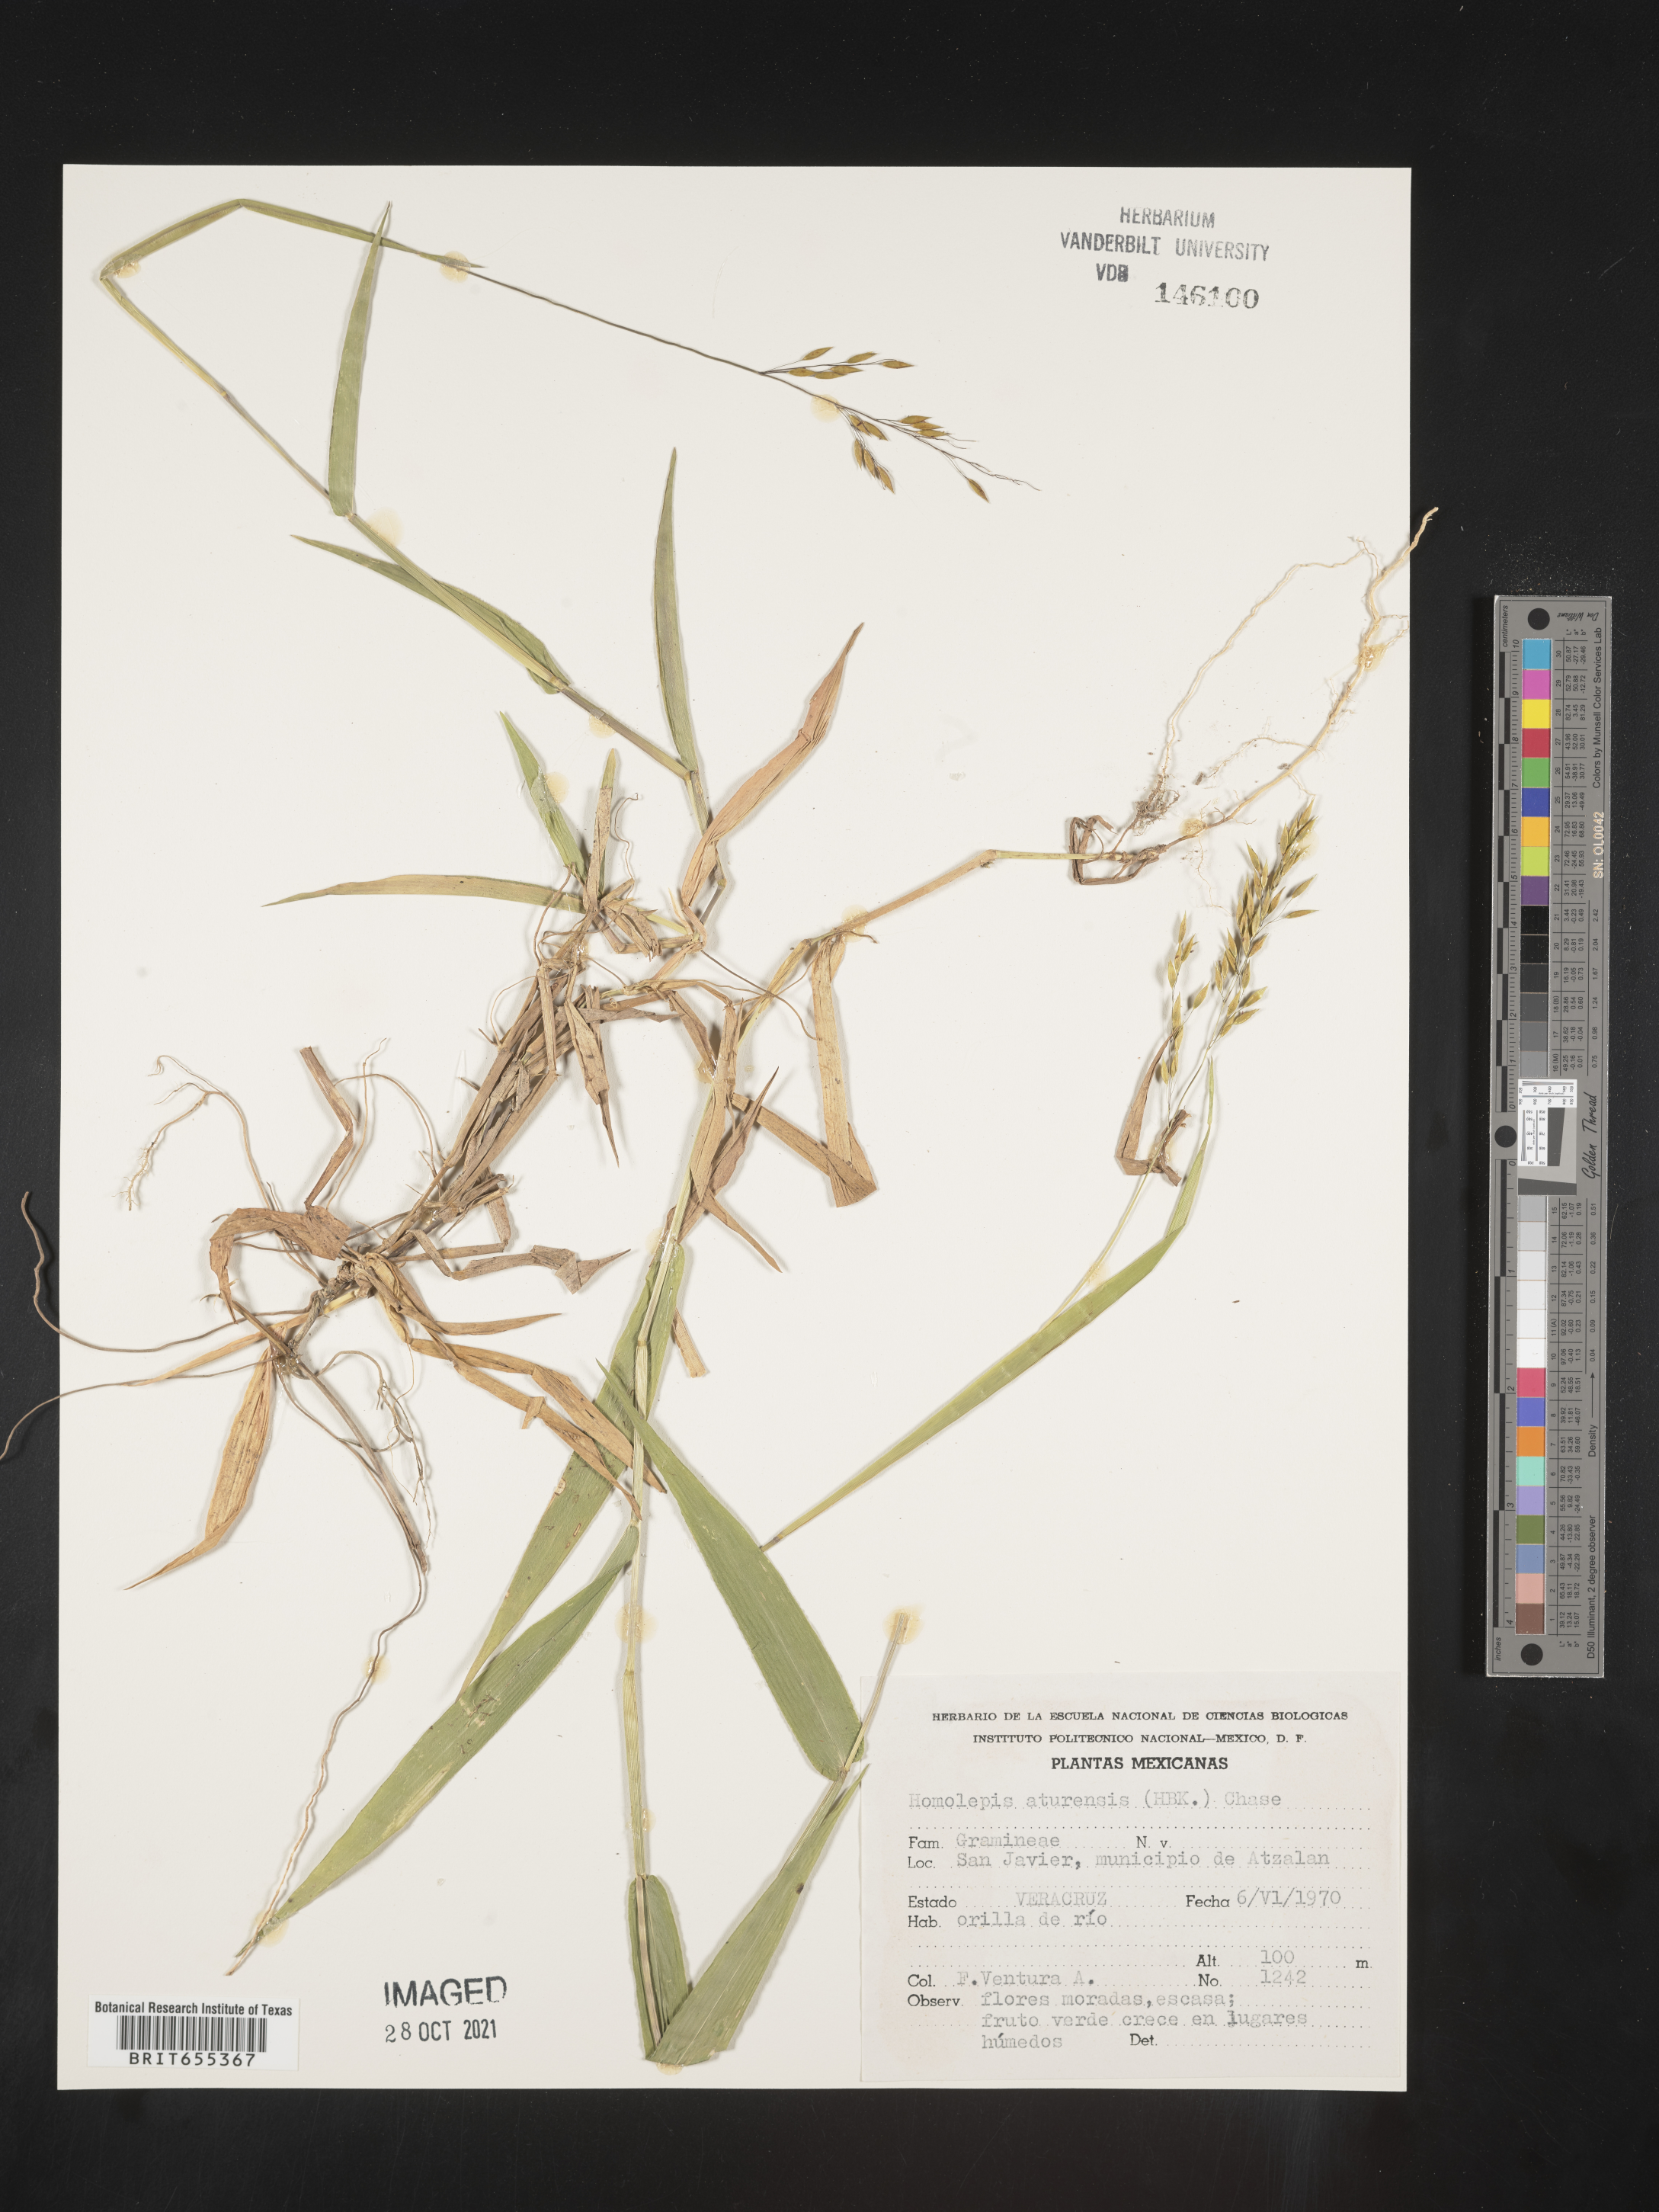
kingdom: Plantae
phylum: Tracheophyta
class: Liliopsida
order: Poales
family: Poaceae
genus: Homolepis
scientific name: Homolepis
